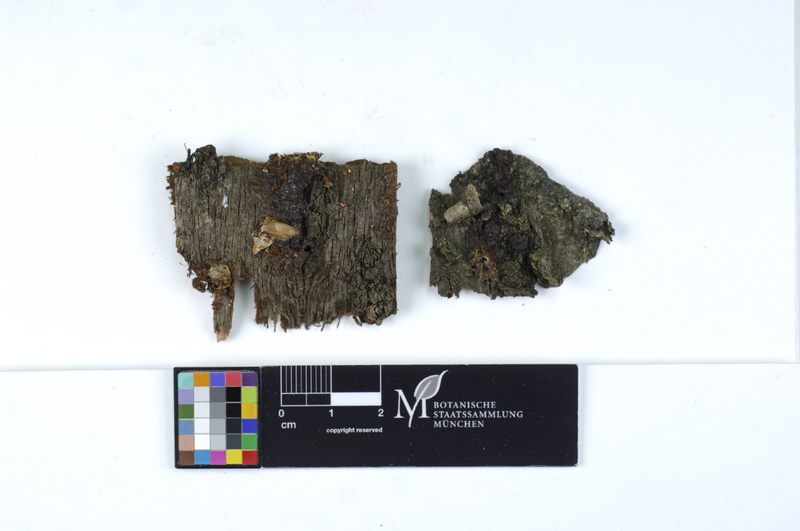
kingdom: Plantae
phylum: Tracheophyta
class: Magnoliopsida
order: Rosales
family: Rosaceae
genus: Prunus
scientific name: Prunus cerasifera
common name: Cherry plum
